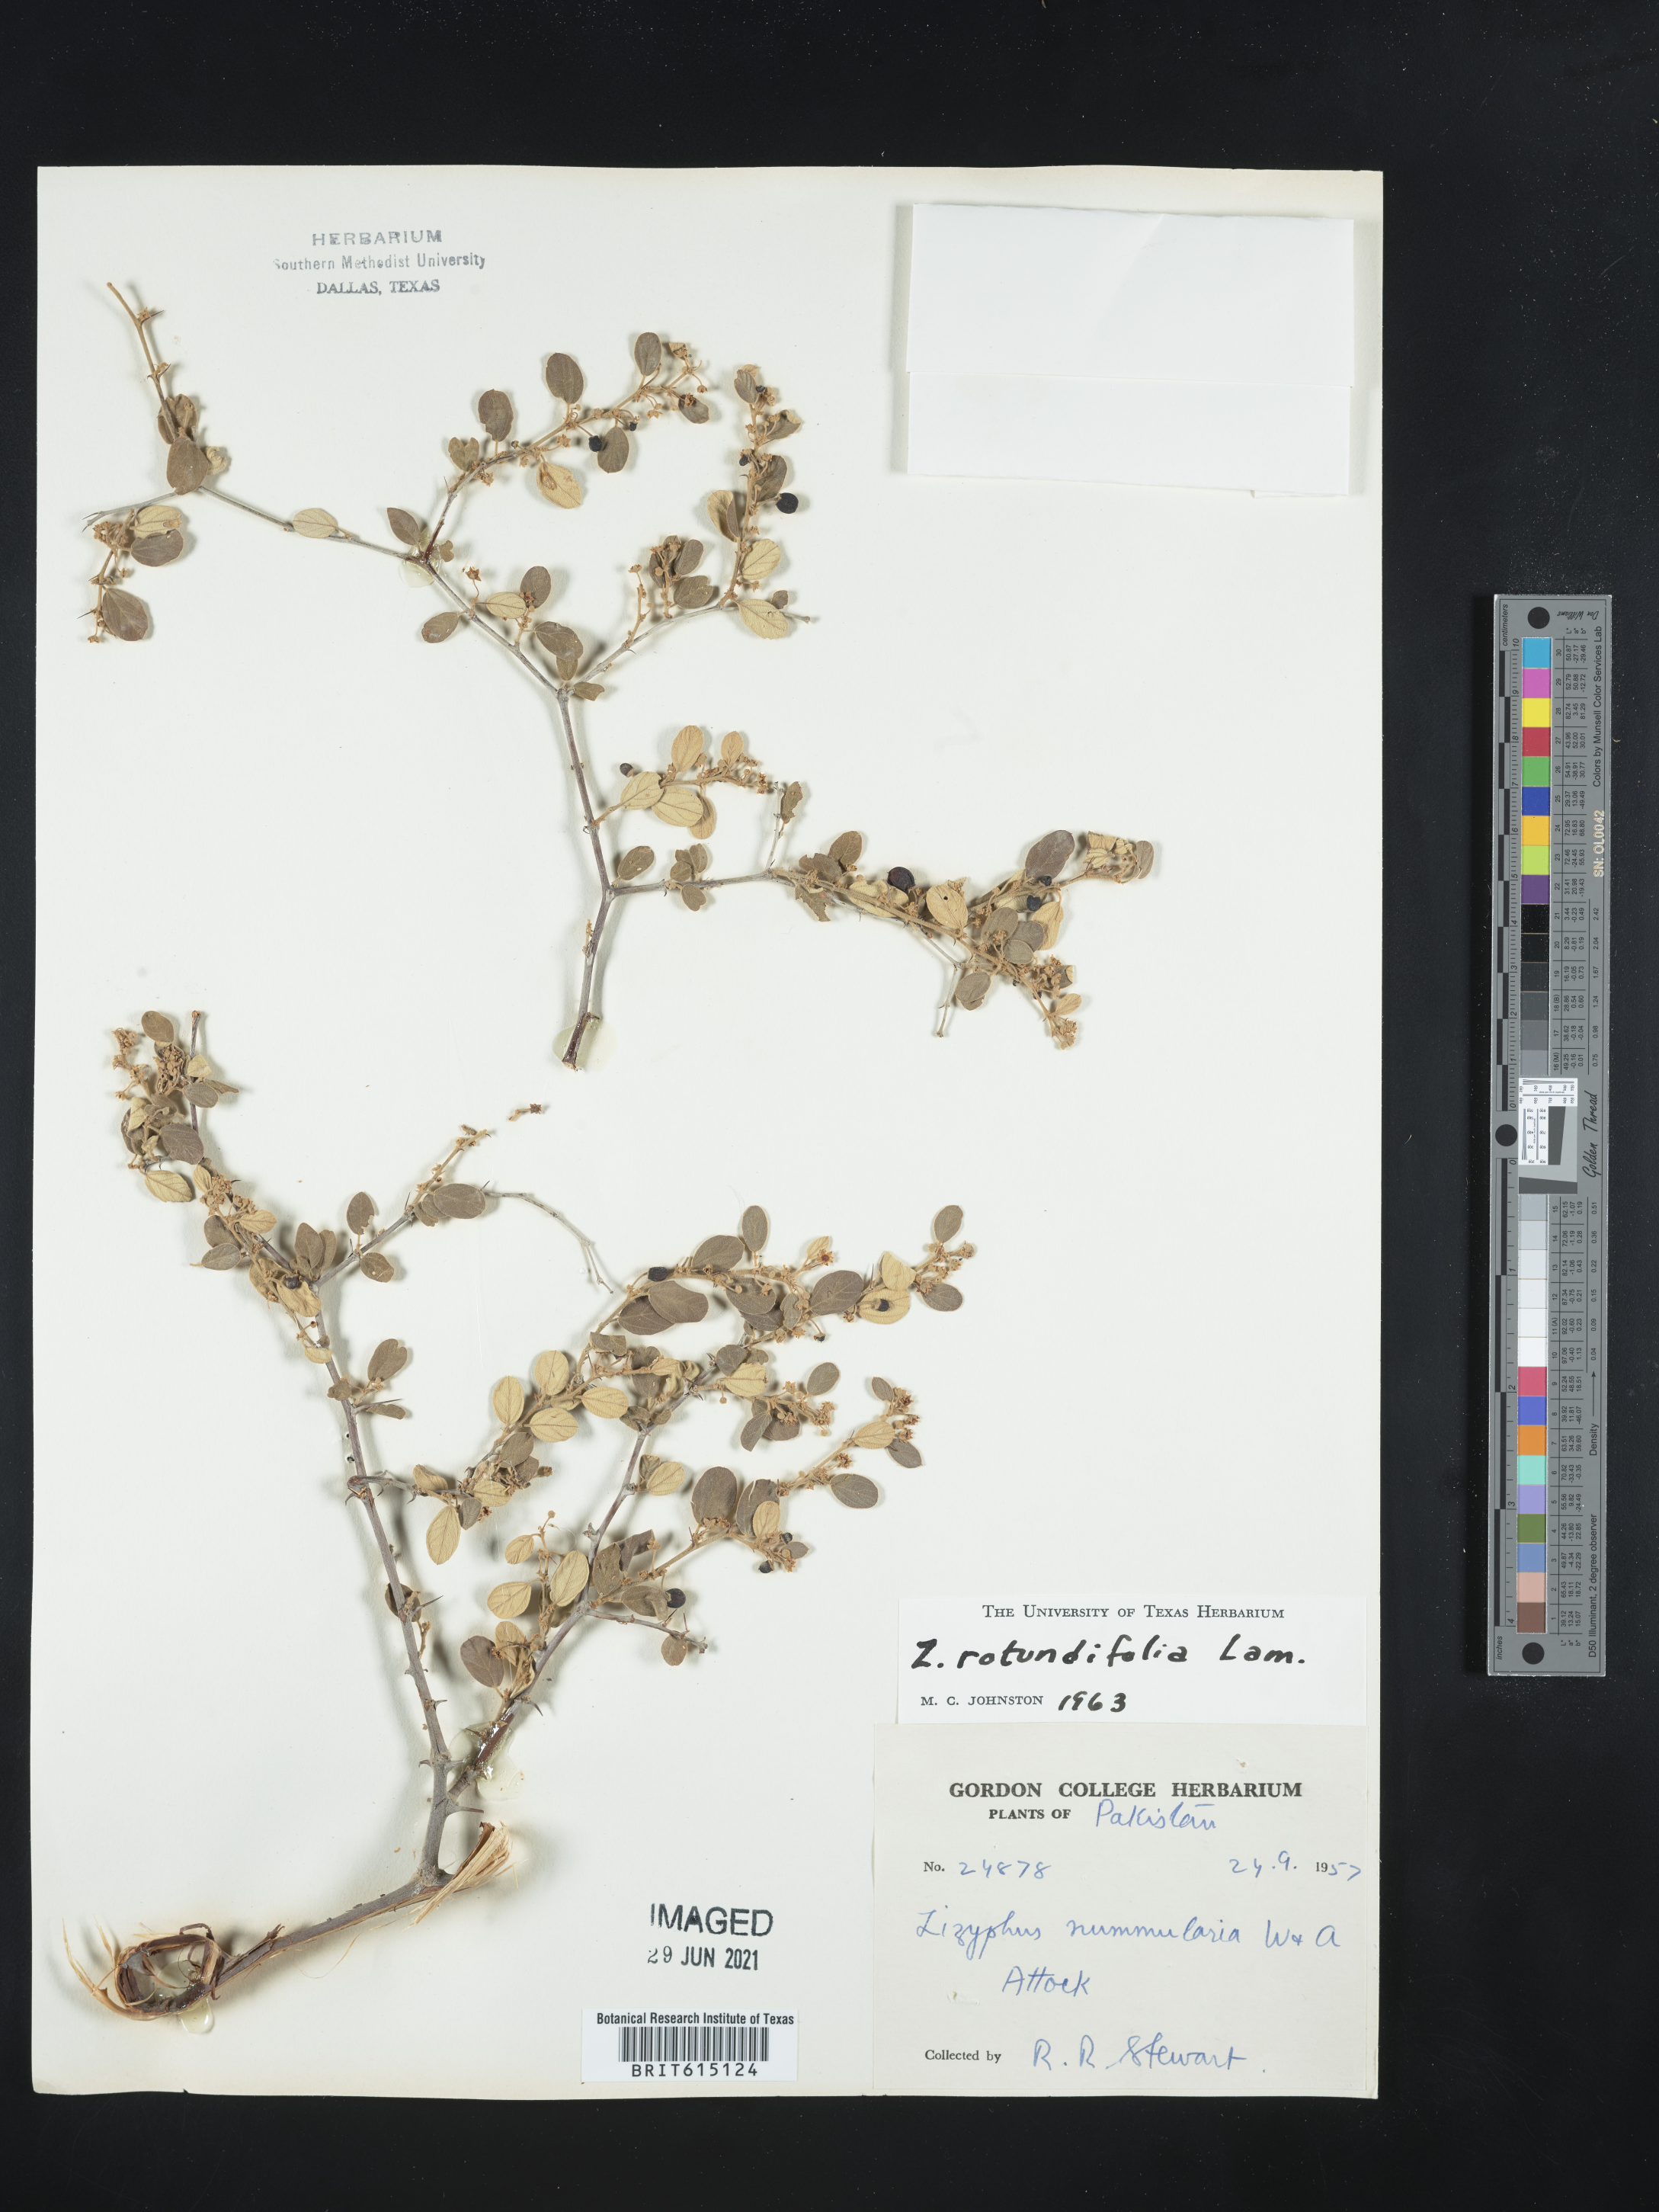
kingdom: Plantae
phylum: Tracheophyta
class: Magnoliopsida
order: Rosales
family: Rhamnaceae
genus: Ziziphus
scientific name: Ziziphus xylopyrus
